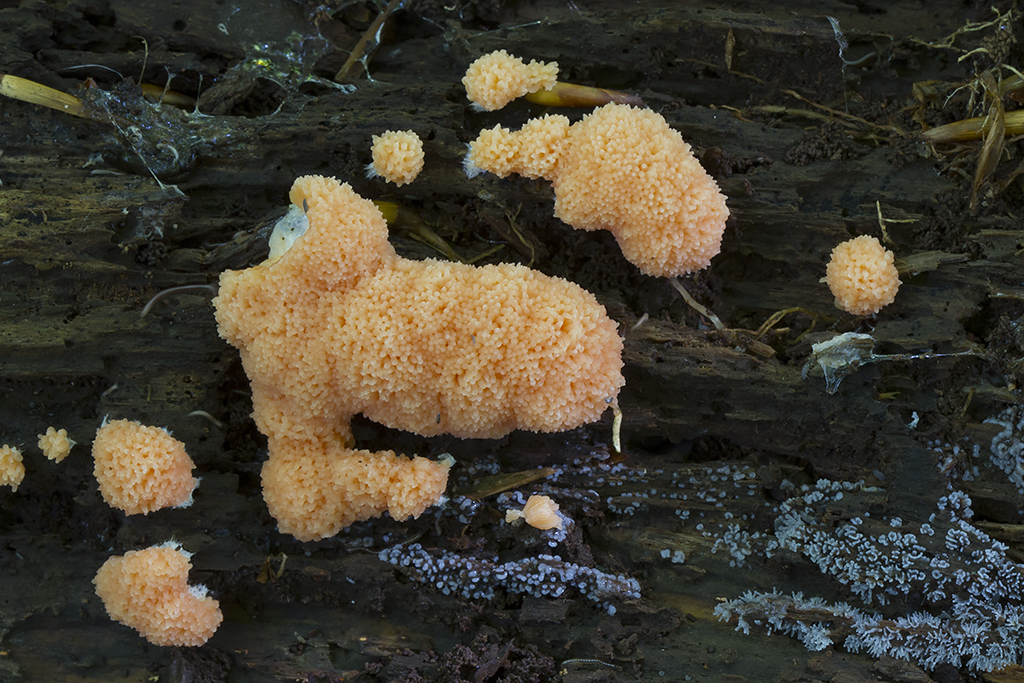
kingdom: Protozoa
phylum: Mycetozoa
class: Myxomycetes
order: Cribrariales
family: Tubiferaceae
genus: Tubifera
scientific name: Tubifera ferruginosa
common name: kanel-støvrør
